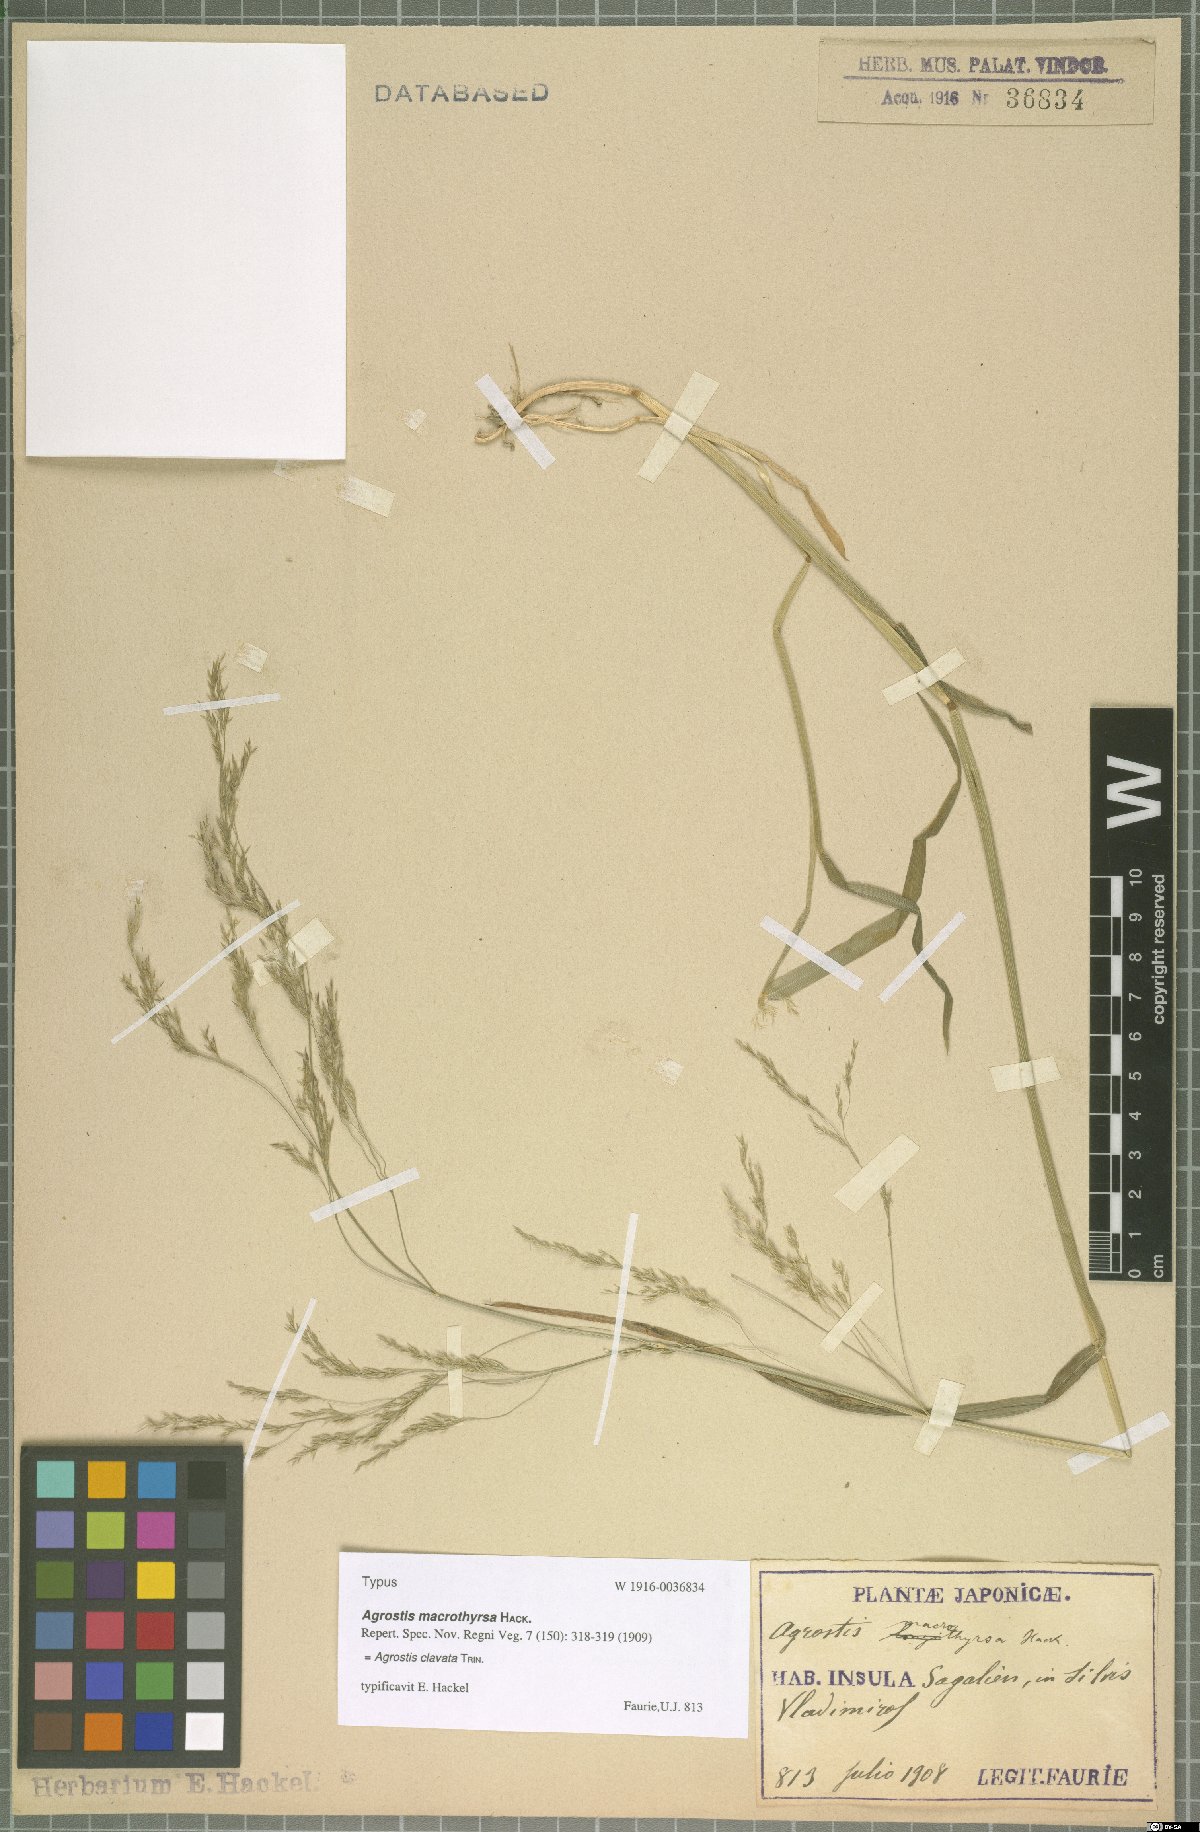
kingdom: Plantae
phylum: Tracheophyta
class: Liliopsida
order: Poales
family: Poaceae
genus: Agrostis
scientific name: Agrostis clavata
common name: Clavate bent
